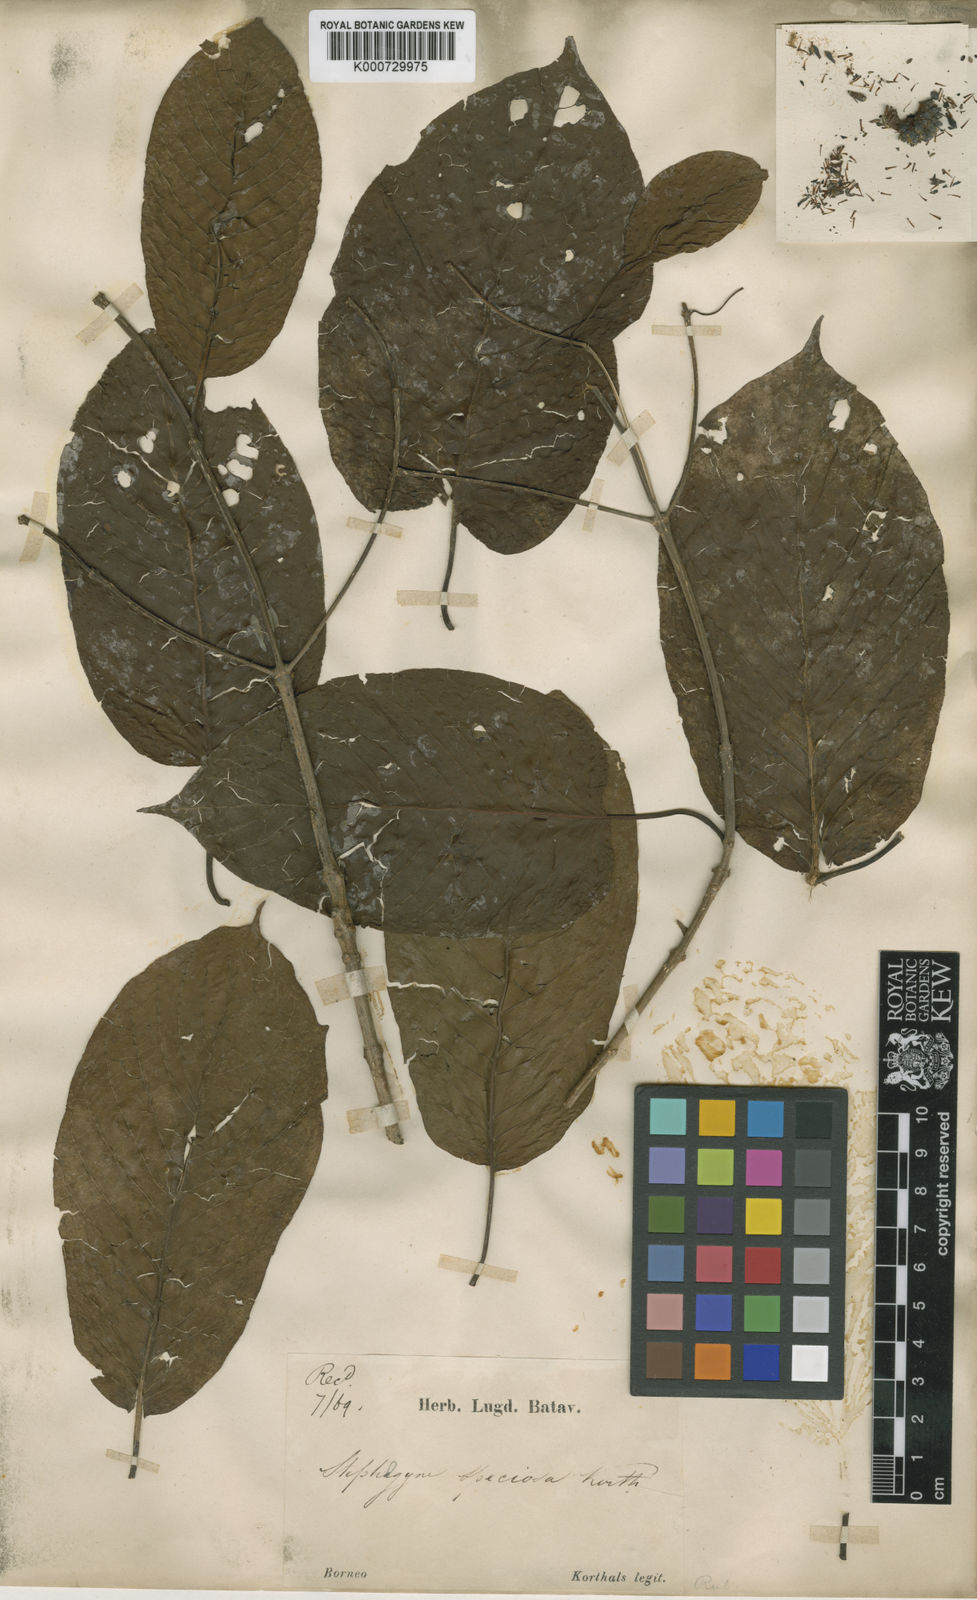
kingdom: Plantae
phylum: Tracheophyta
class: Magnoliopsida
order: Gentianales
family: Rubiaceae
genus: Mitragyna
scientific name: Mitragyna
